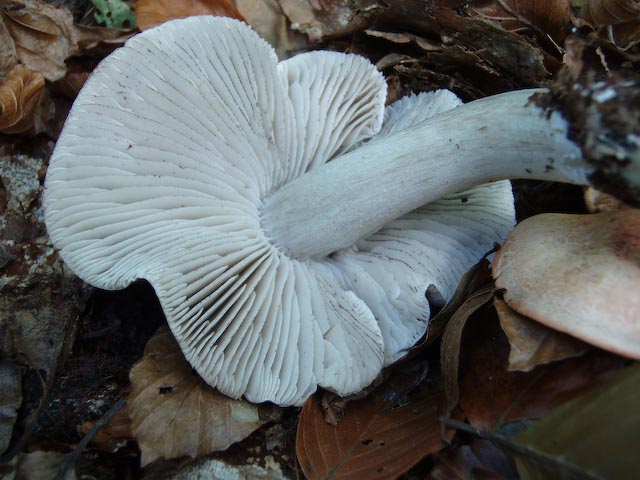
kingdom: Fungi
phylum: Basidiomycota
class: Agaricomycetes
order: Agaricales
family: Tricholomataceae
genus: Tricholoma
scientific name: Tricholoma sciodes
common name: stribet ridderhat
